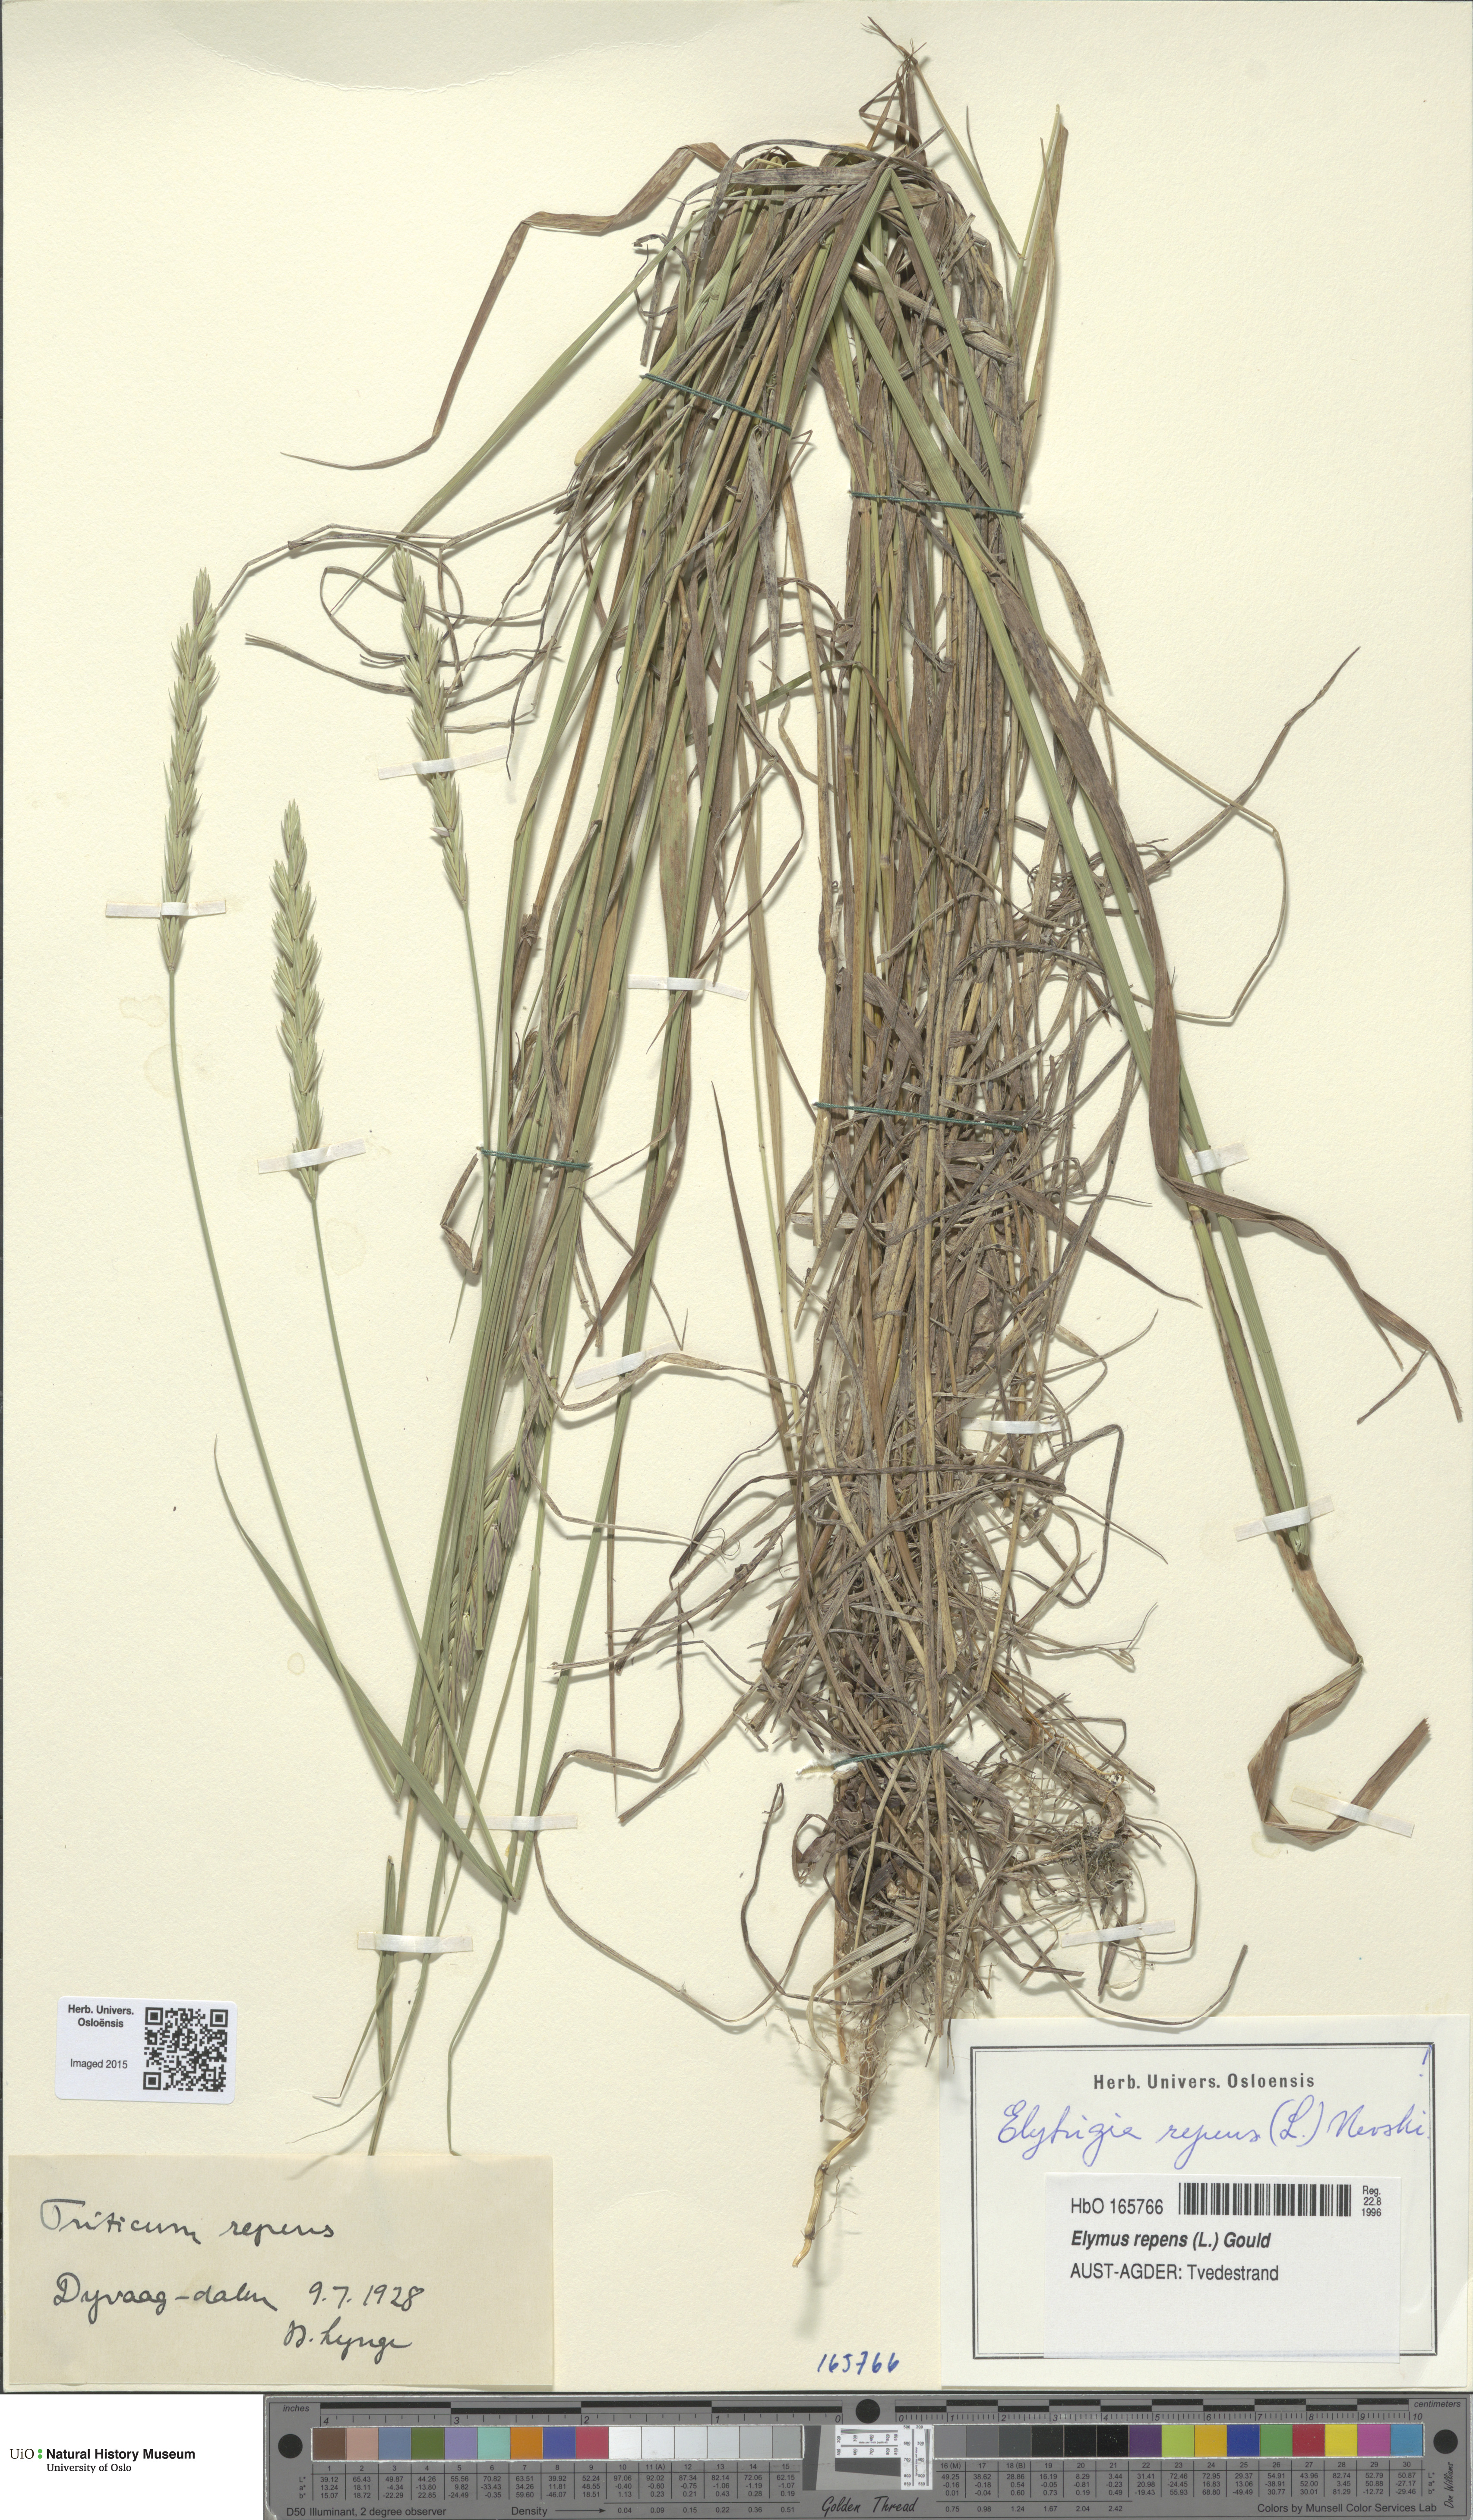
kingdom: Plantae
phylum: Tracheophyta
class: Liliopsida
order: Poales
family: Poaceae
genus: Elymus
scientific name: Elymus repens
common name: Quackgrass
